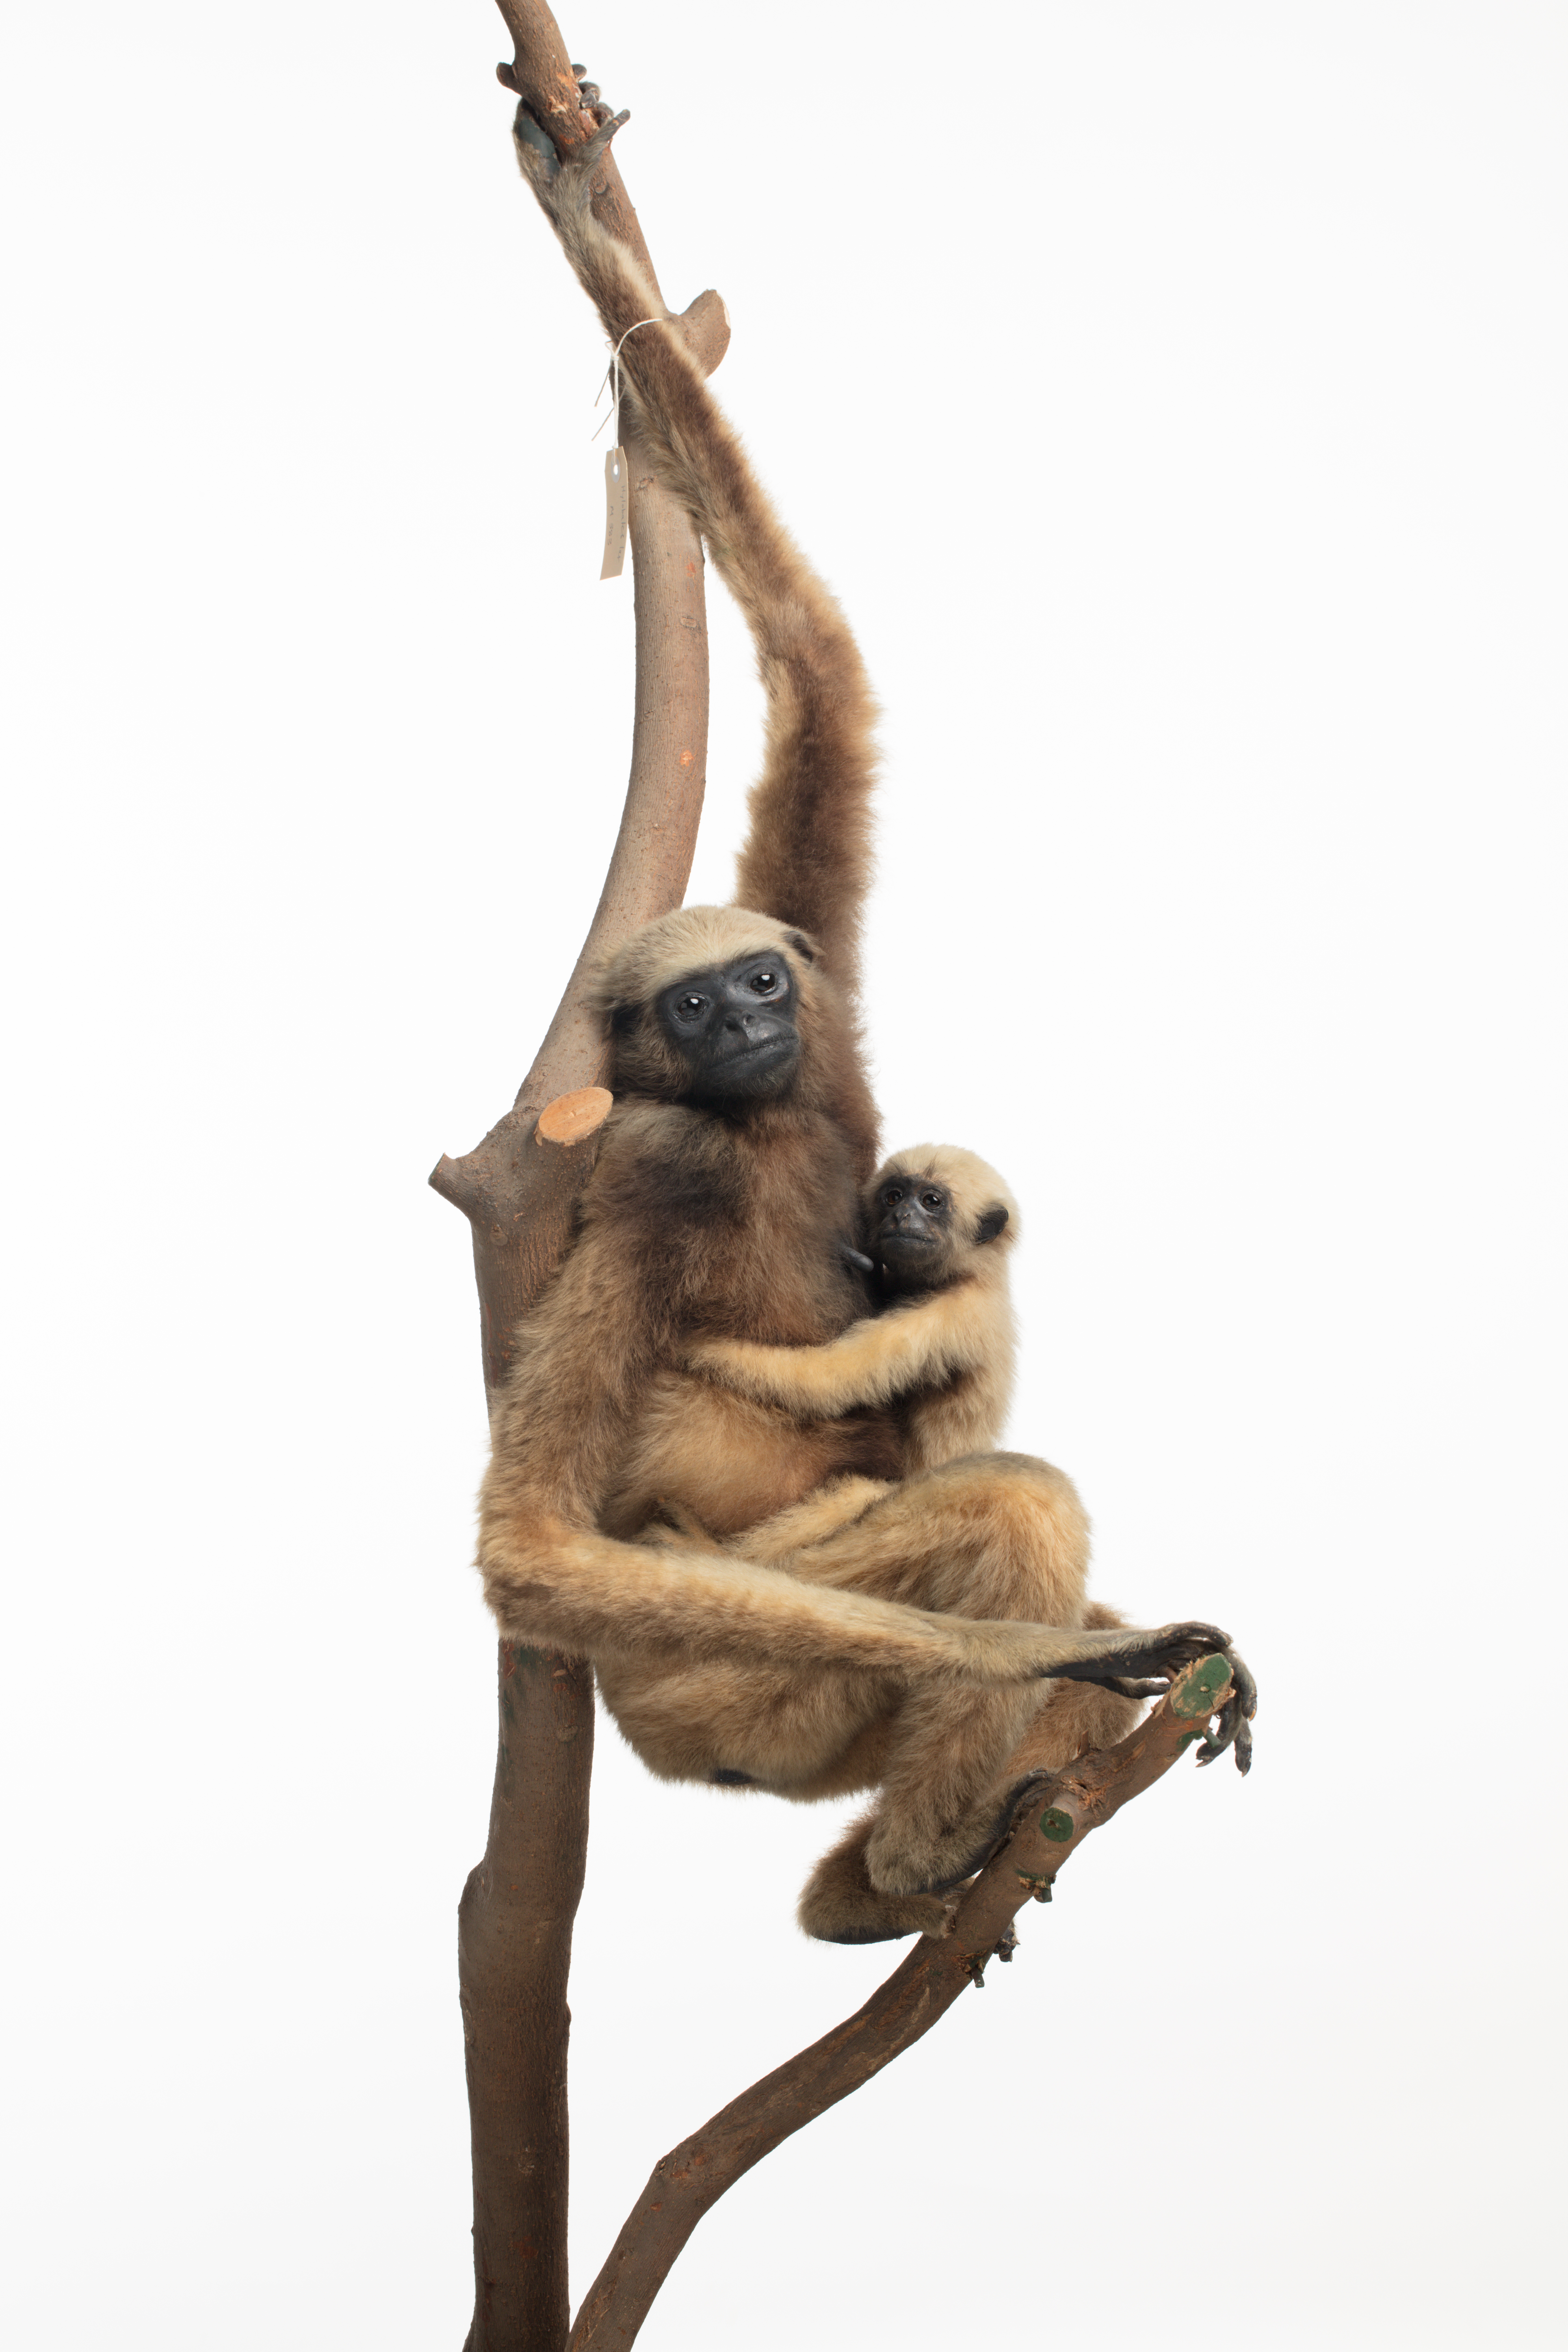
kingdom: Animalia
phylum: Chordata
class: Mammalia
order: Primates
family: Hylobatidae
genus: Hylobates
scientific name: Hylobates muelleri
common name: Borneo gibbon
